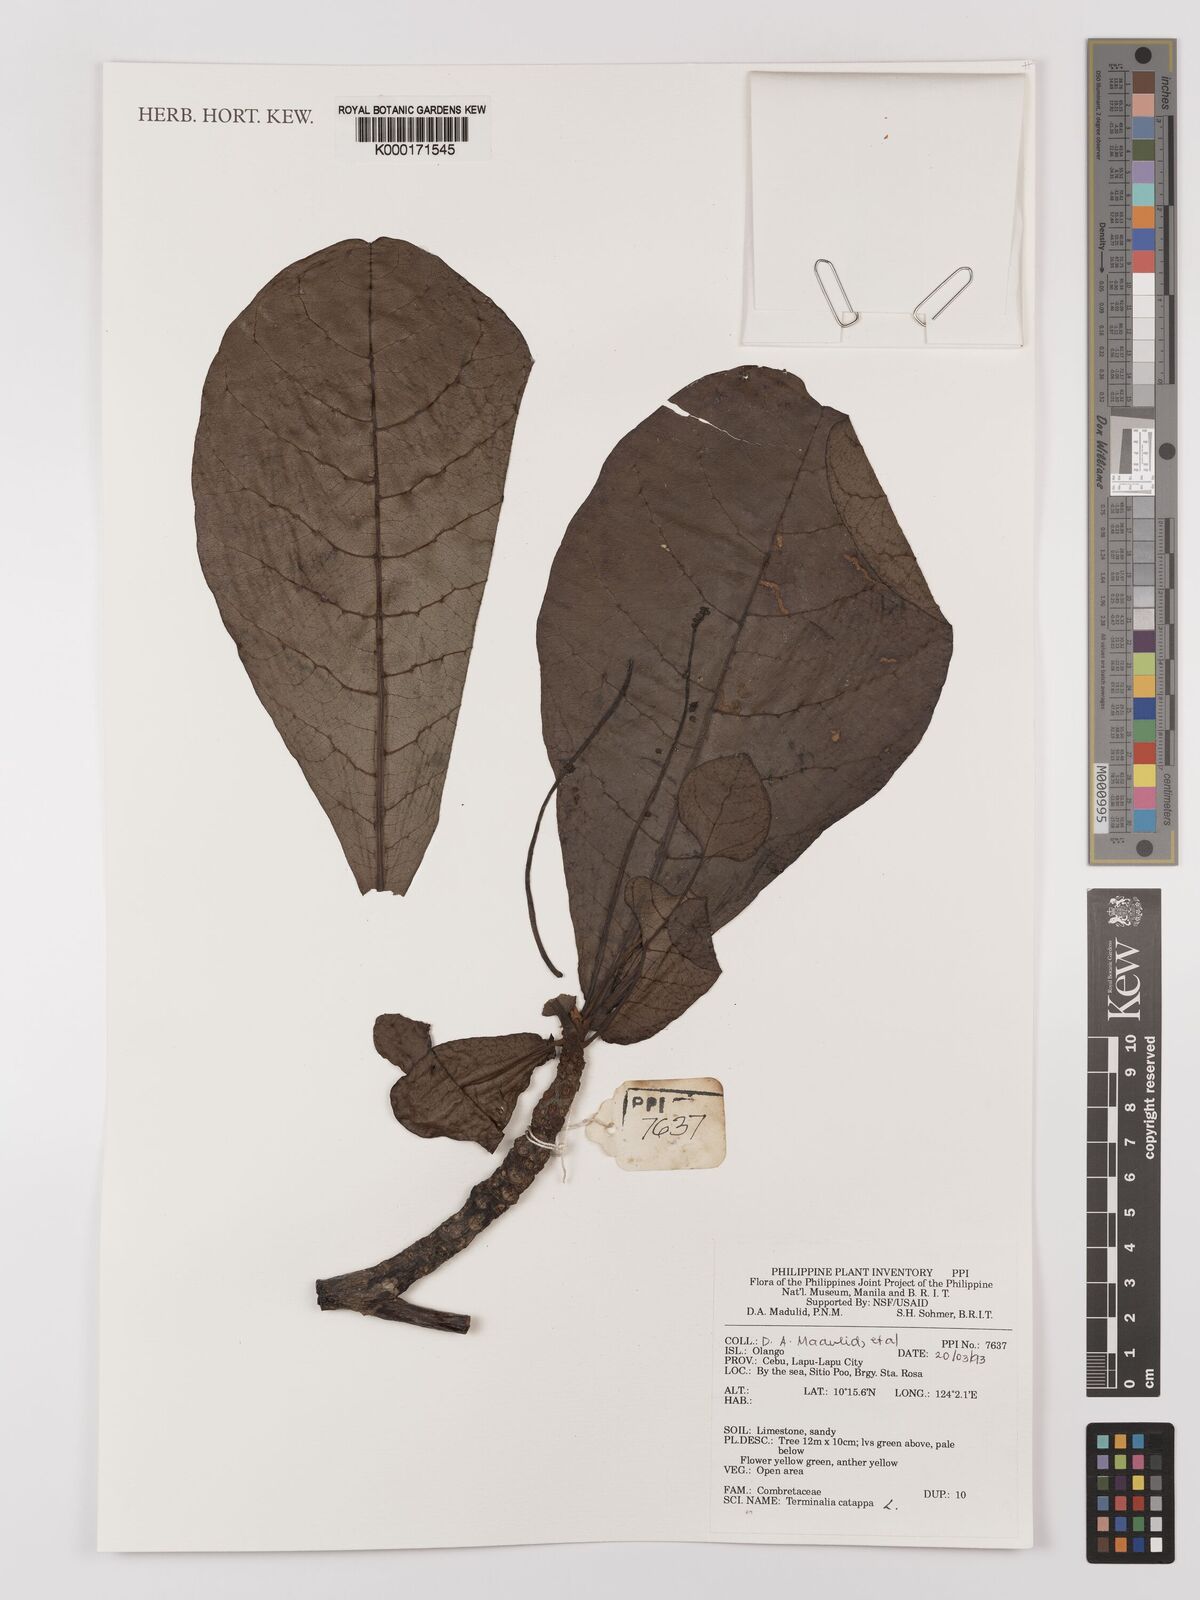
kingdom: Plantae
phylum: Tracheophyta
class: Magnoliopsida
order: Myrtales
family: Combretaceae
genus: Terminalia
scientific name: Terminalia catappa
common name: Tropical almond
